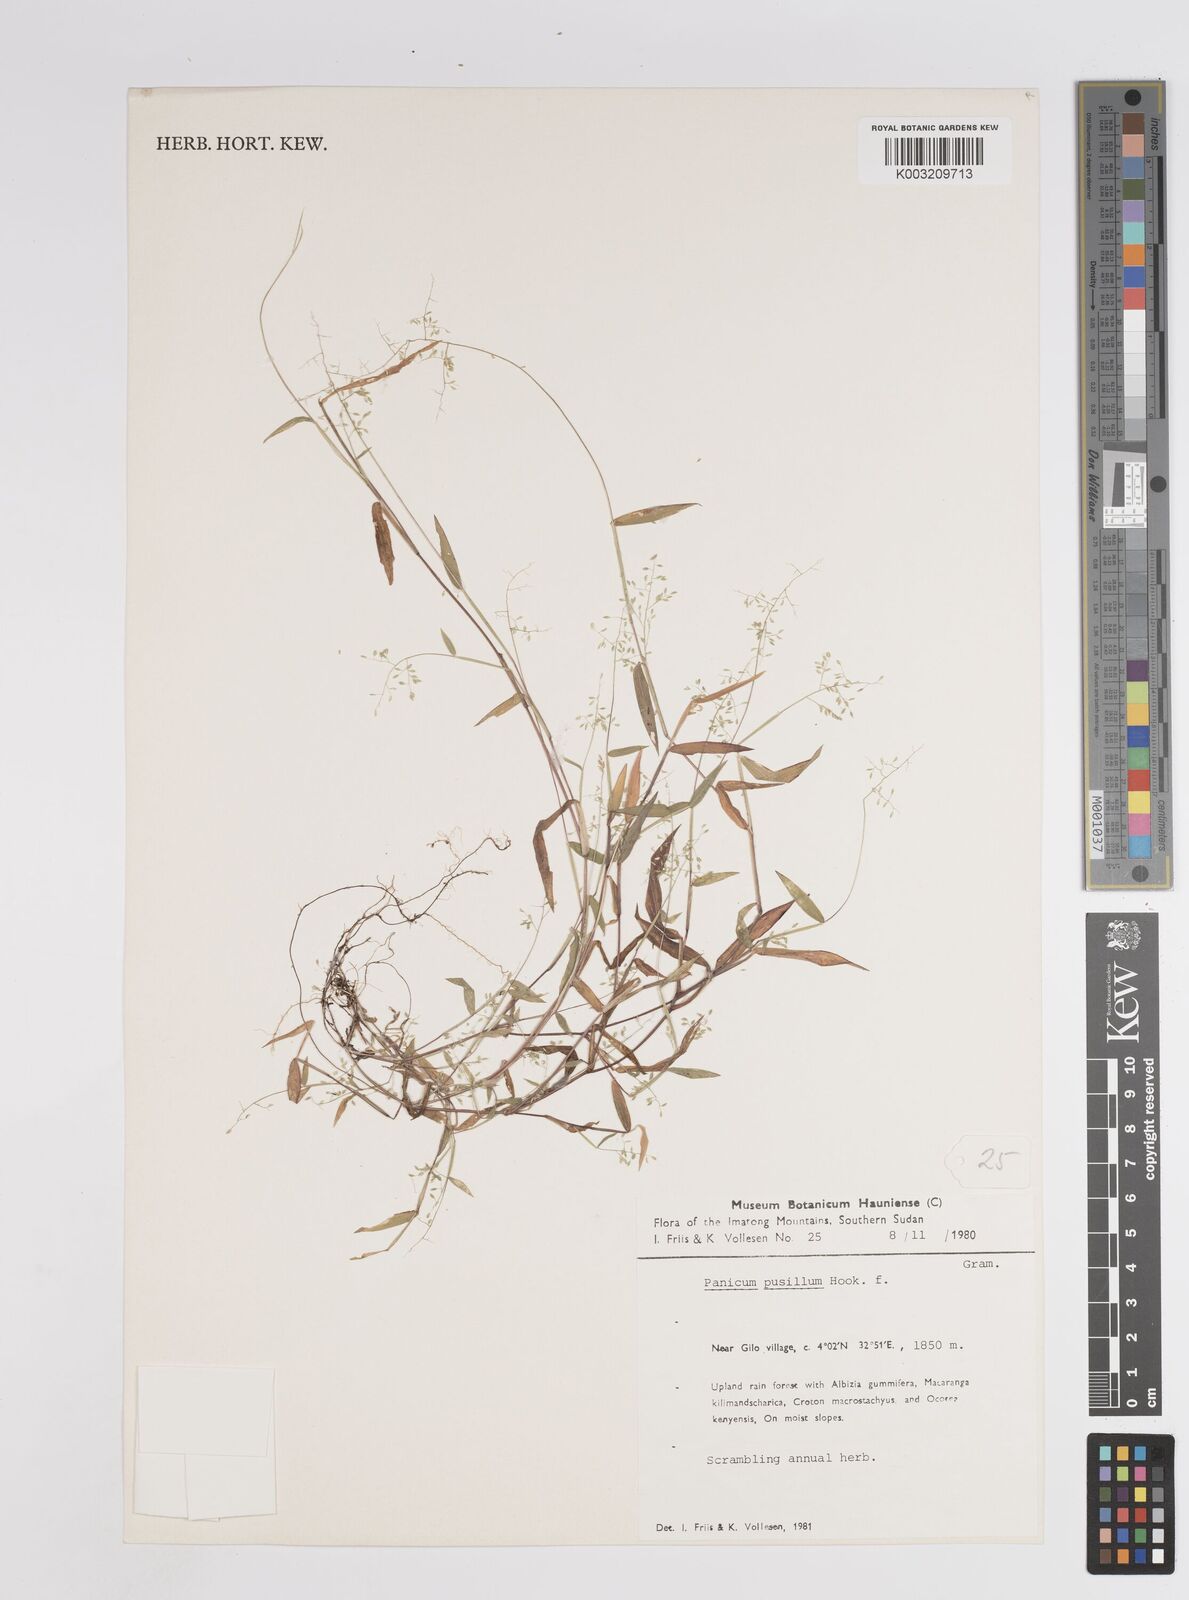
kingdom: Plantae
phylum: Tracheophyta
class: Liliopsida
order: Poales
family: Poaceae
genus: Panicum
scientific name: Panicum pusillum
